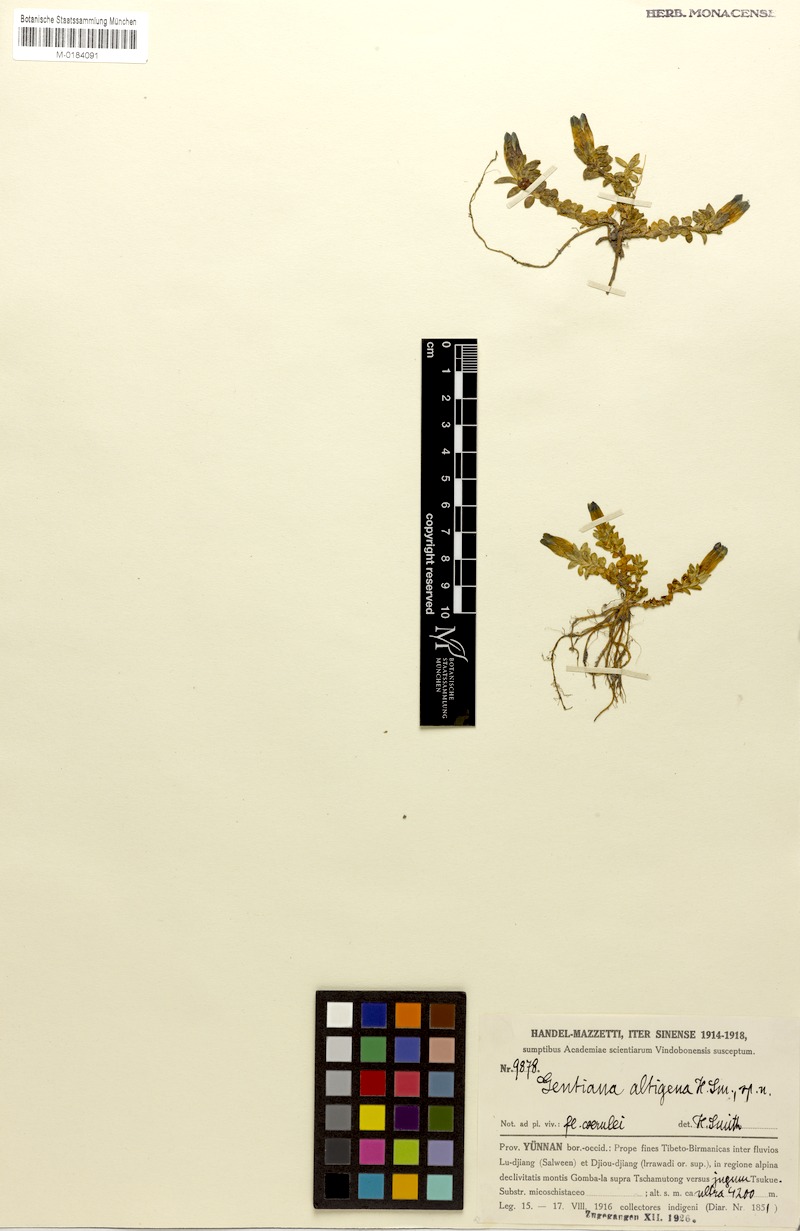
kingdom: Plantae
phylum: Tracheophyta
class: Magnoliopsida
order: Gentianales
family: Gentianaceae
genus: Gentiana
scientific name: Gentiana altigena
